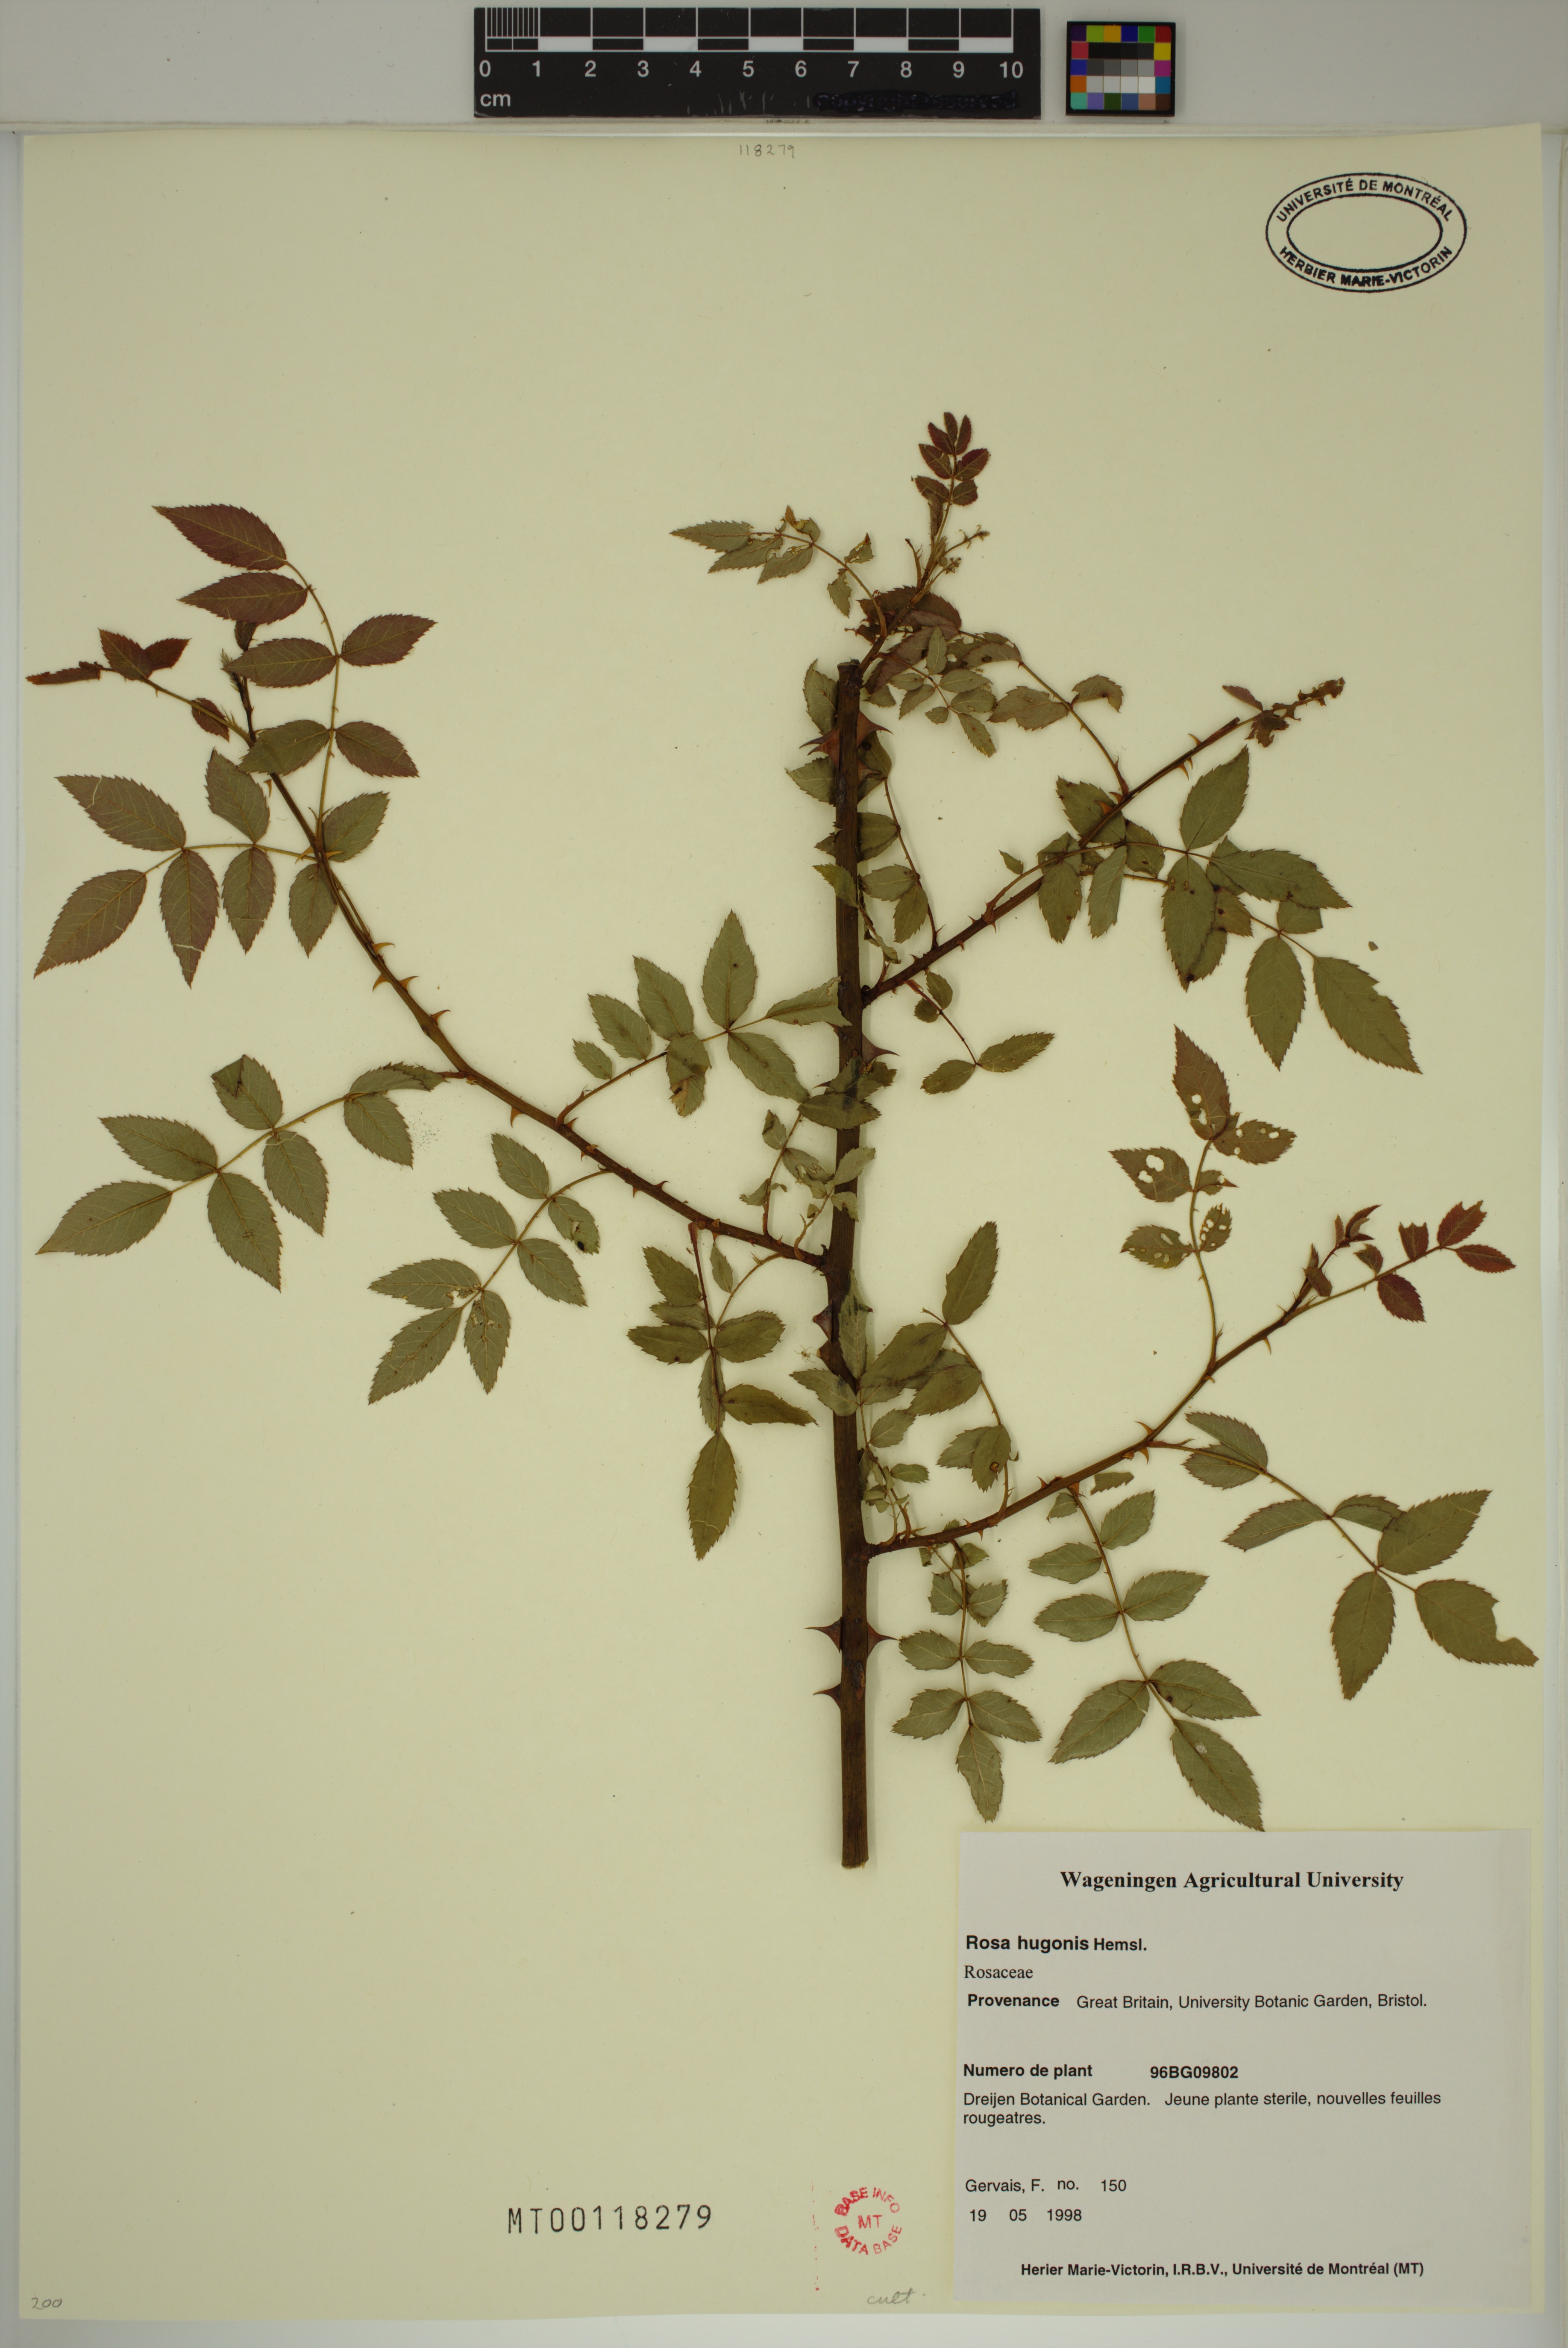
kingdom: Plantae
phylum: Tracheophyta
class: Magnoliopsida
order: Rosales
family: Rosaceae
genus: Rosa
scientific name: Rosa
